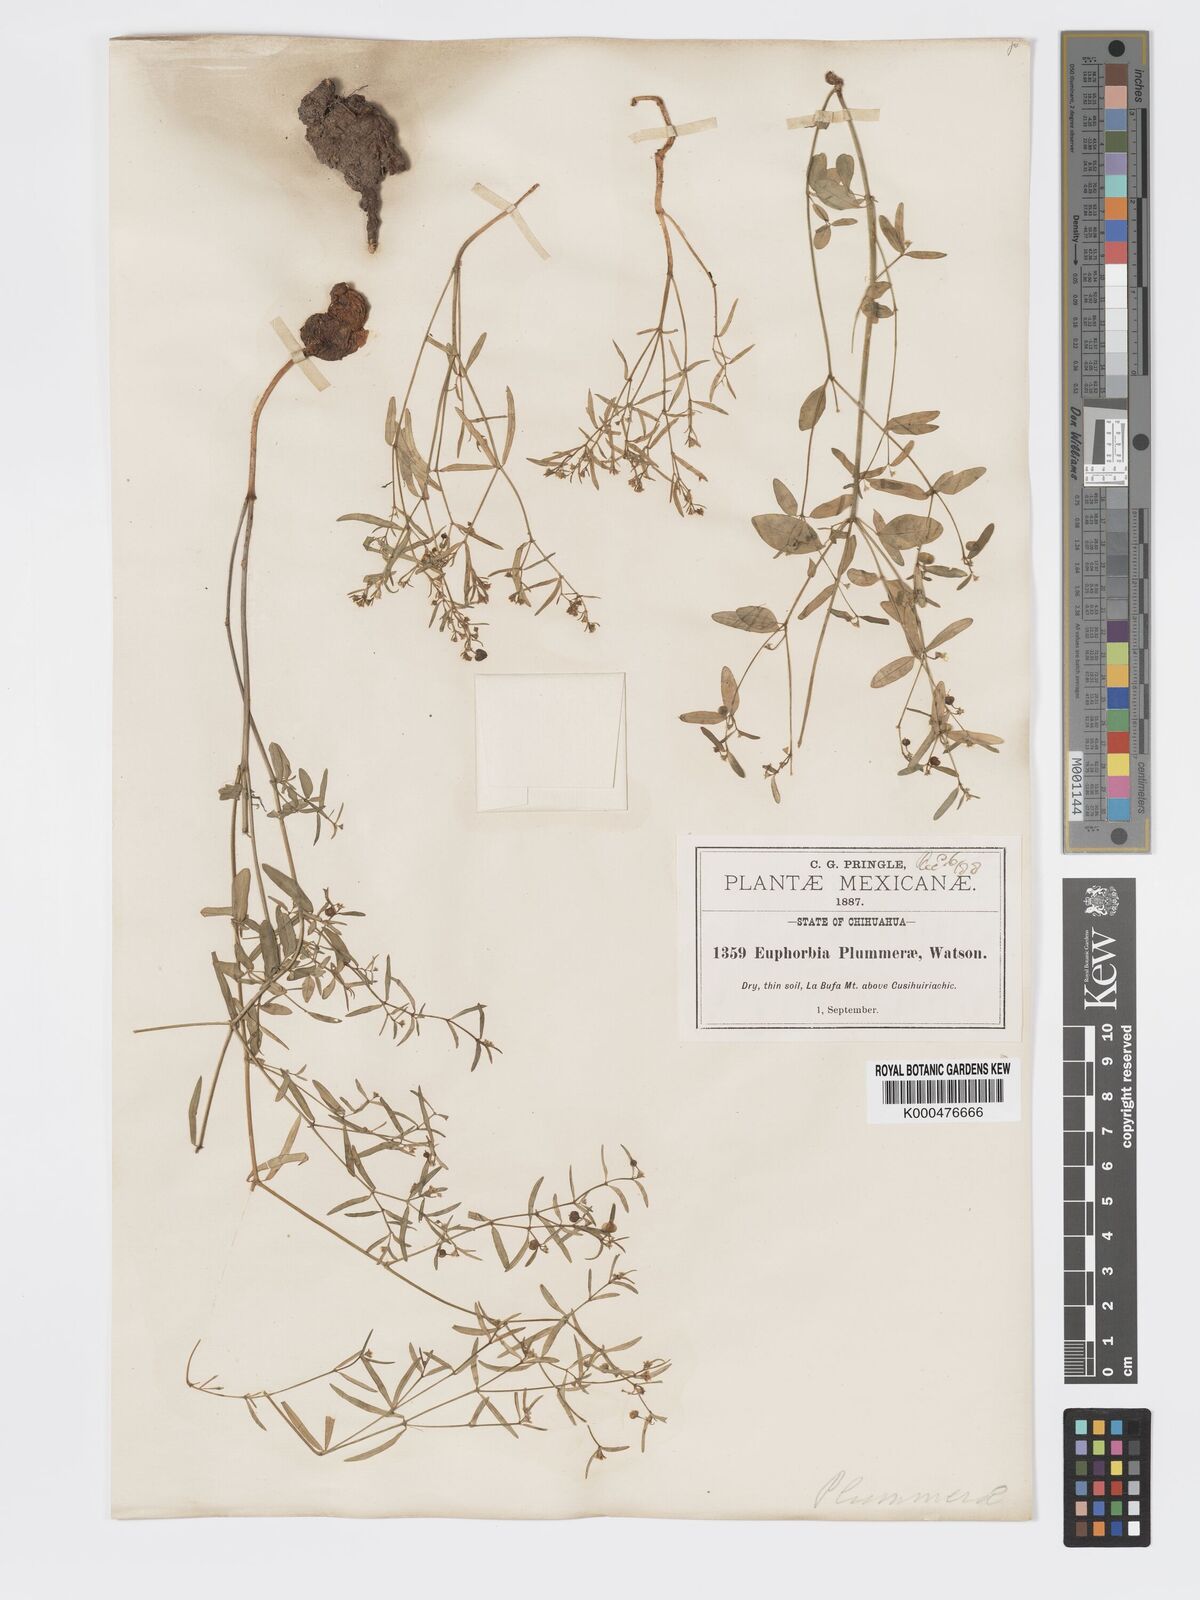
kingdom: Plantae
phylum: Tracheophyta
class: Magnoliopsida
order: Malpighiales
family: Euphorbiaceae
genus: Euphorbia
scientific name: Euphorbia macropus
